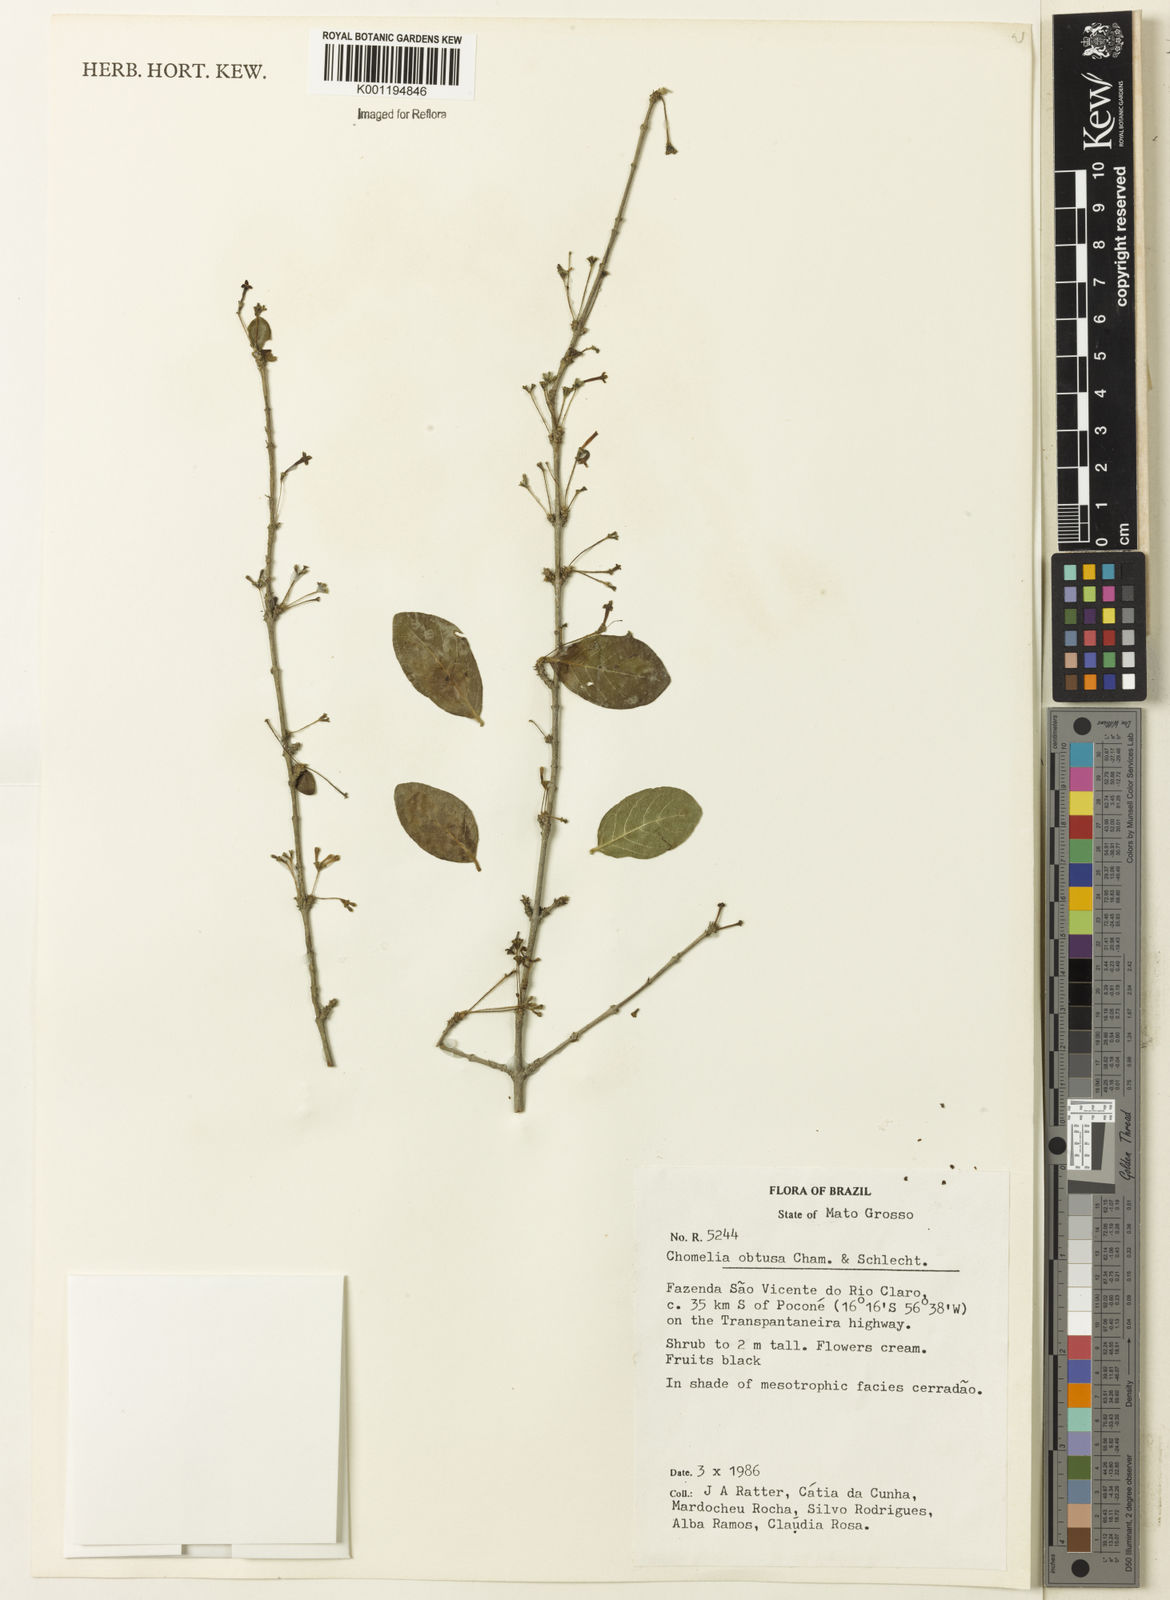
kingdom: Plantae
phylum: Tracheophyta
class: Magnoliopsida
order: Gentianales
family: Rubiaceae
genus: Chomelia
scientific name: Chomelia obtusa
